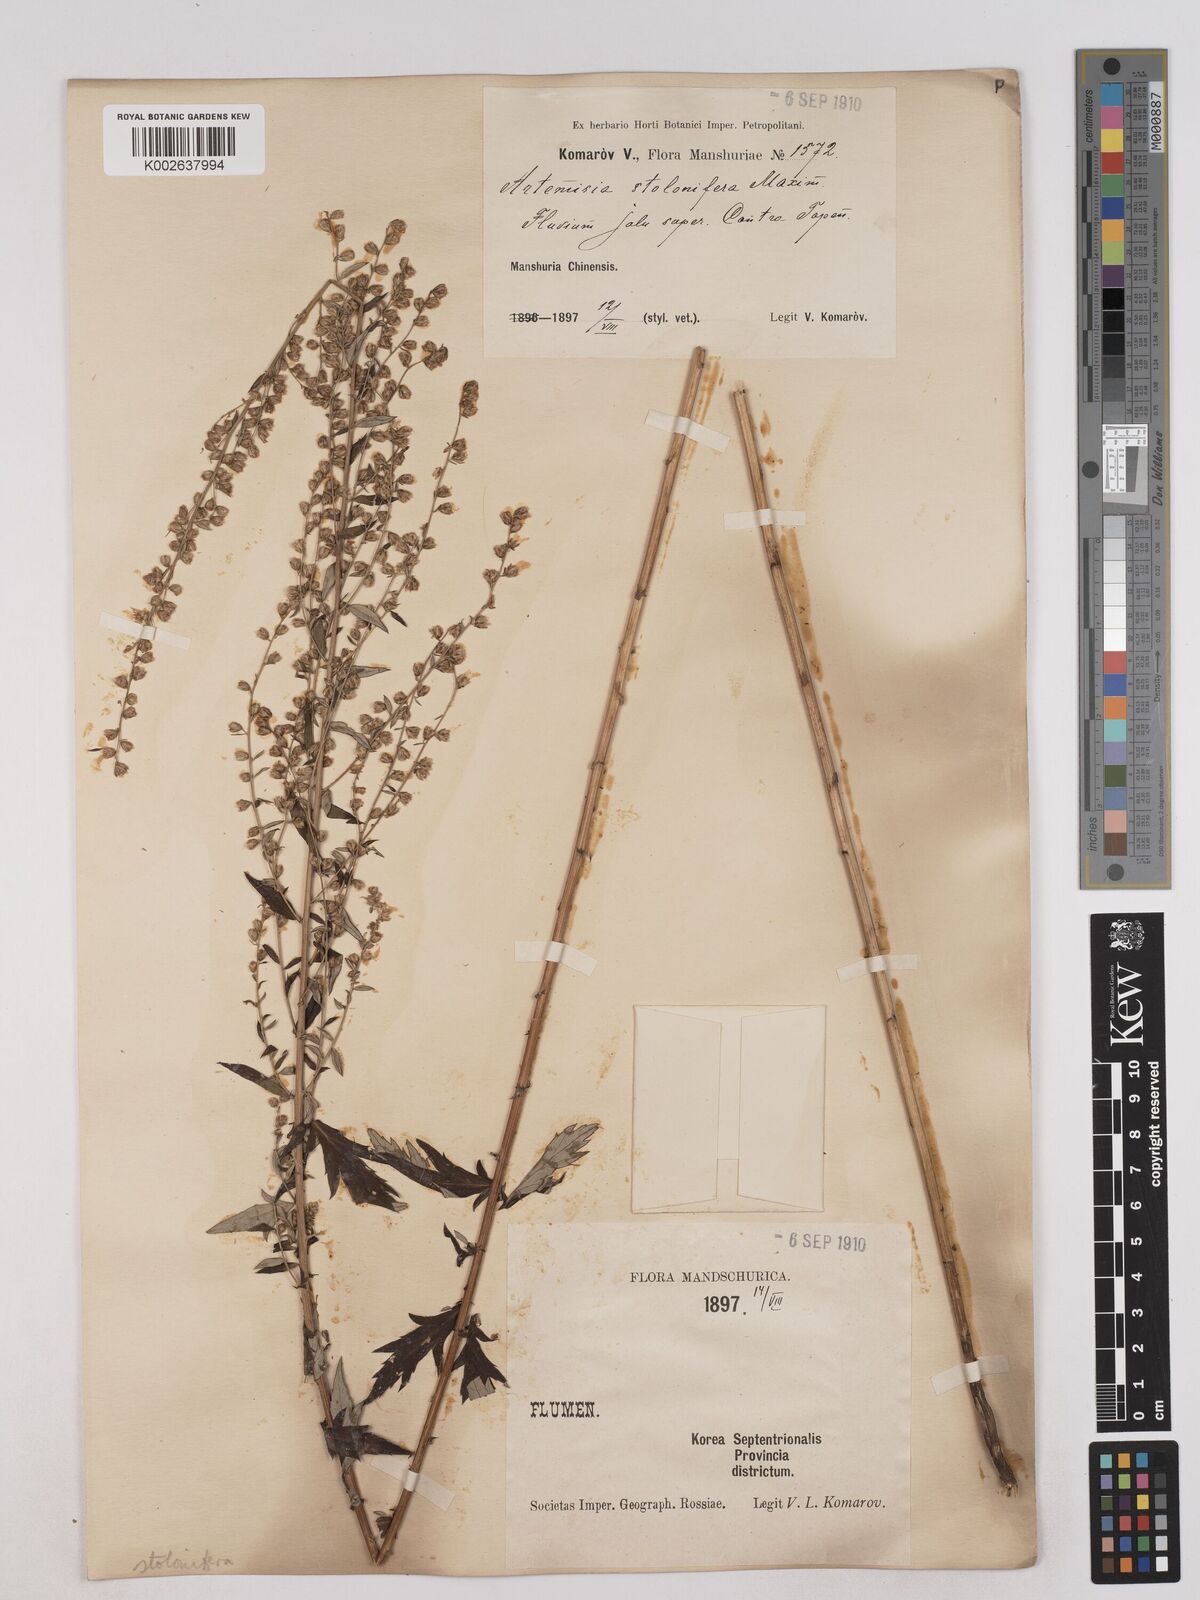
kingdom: Plantae
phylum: Tracheophyta
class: Magnoliopsida
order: Asterales
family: Asteraceae
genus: Artemisia
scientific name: Artemisia igniaria
